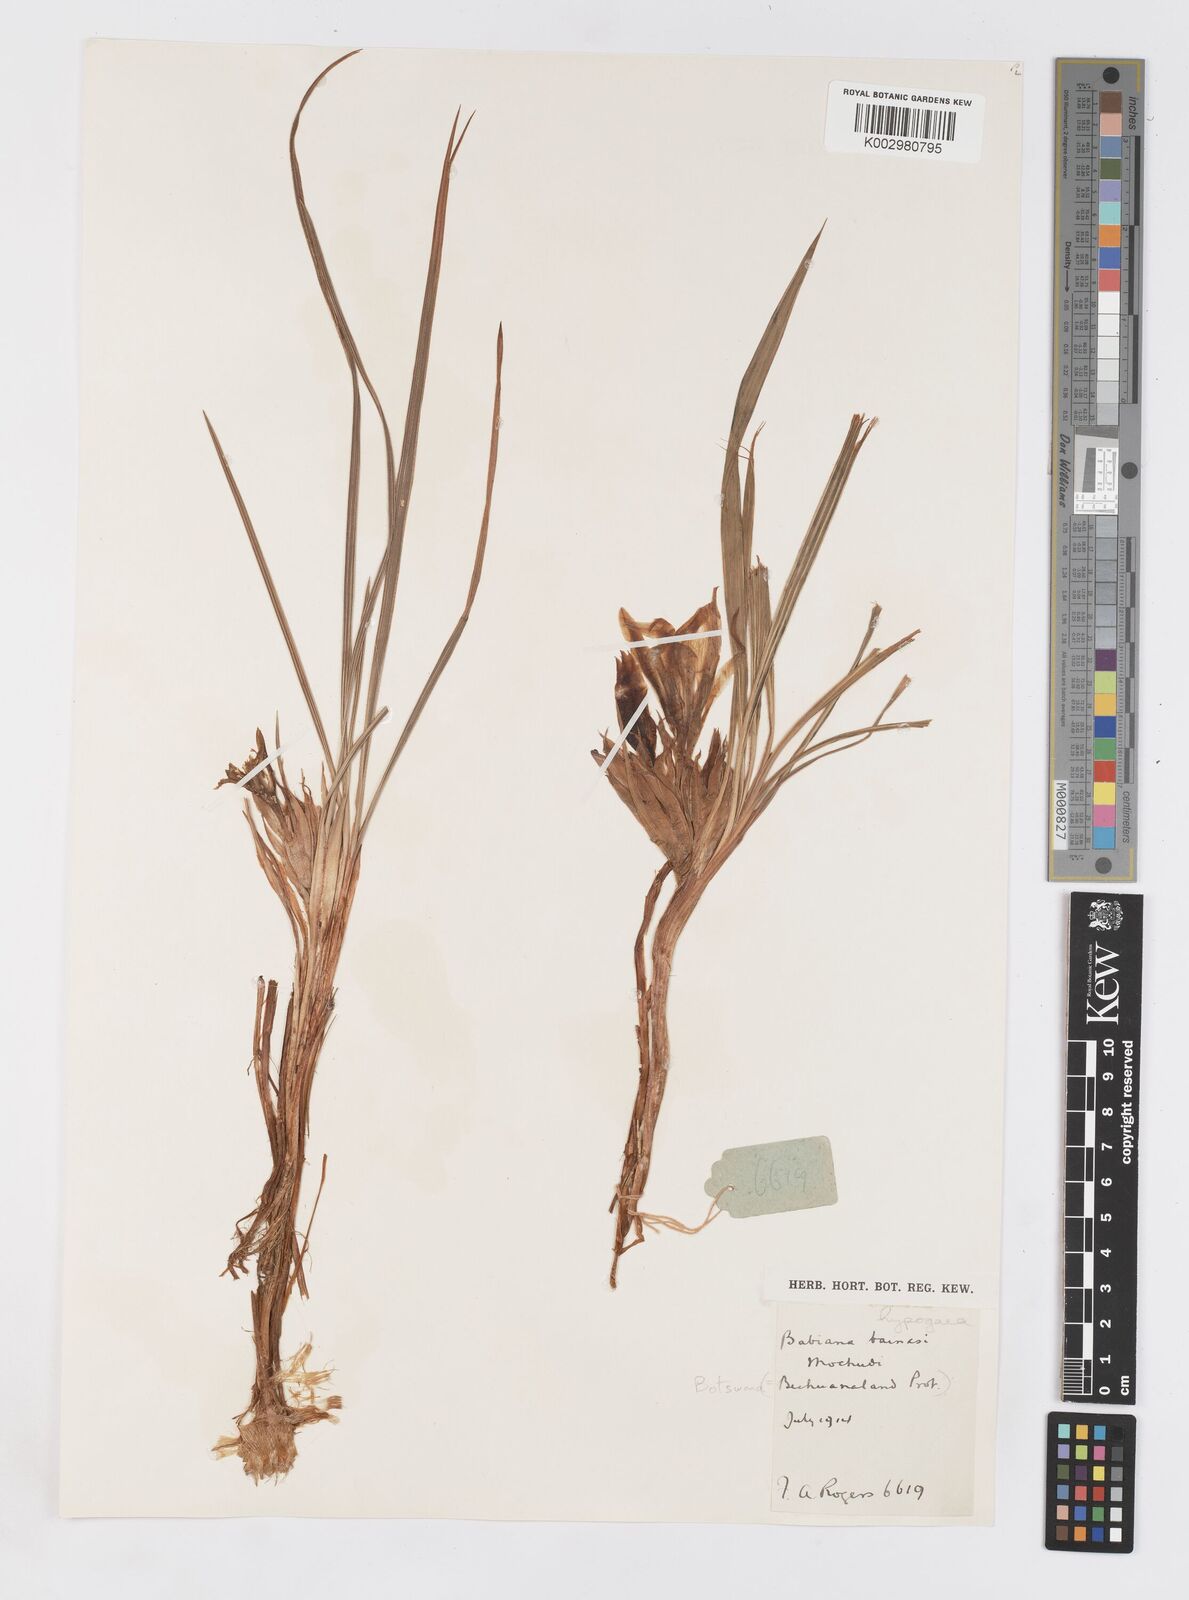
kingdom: Plantae
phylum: Tracheophyta
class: Liliopsida
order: Asparagales
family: Iridaceae
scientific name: Iridaceae
